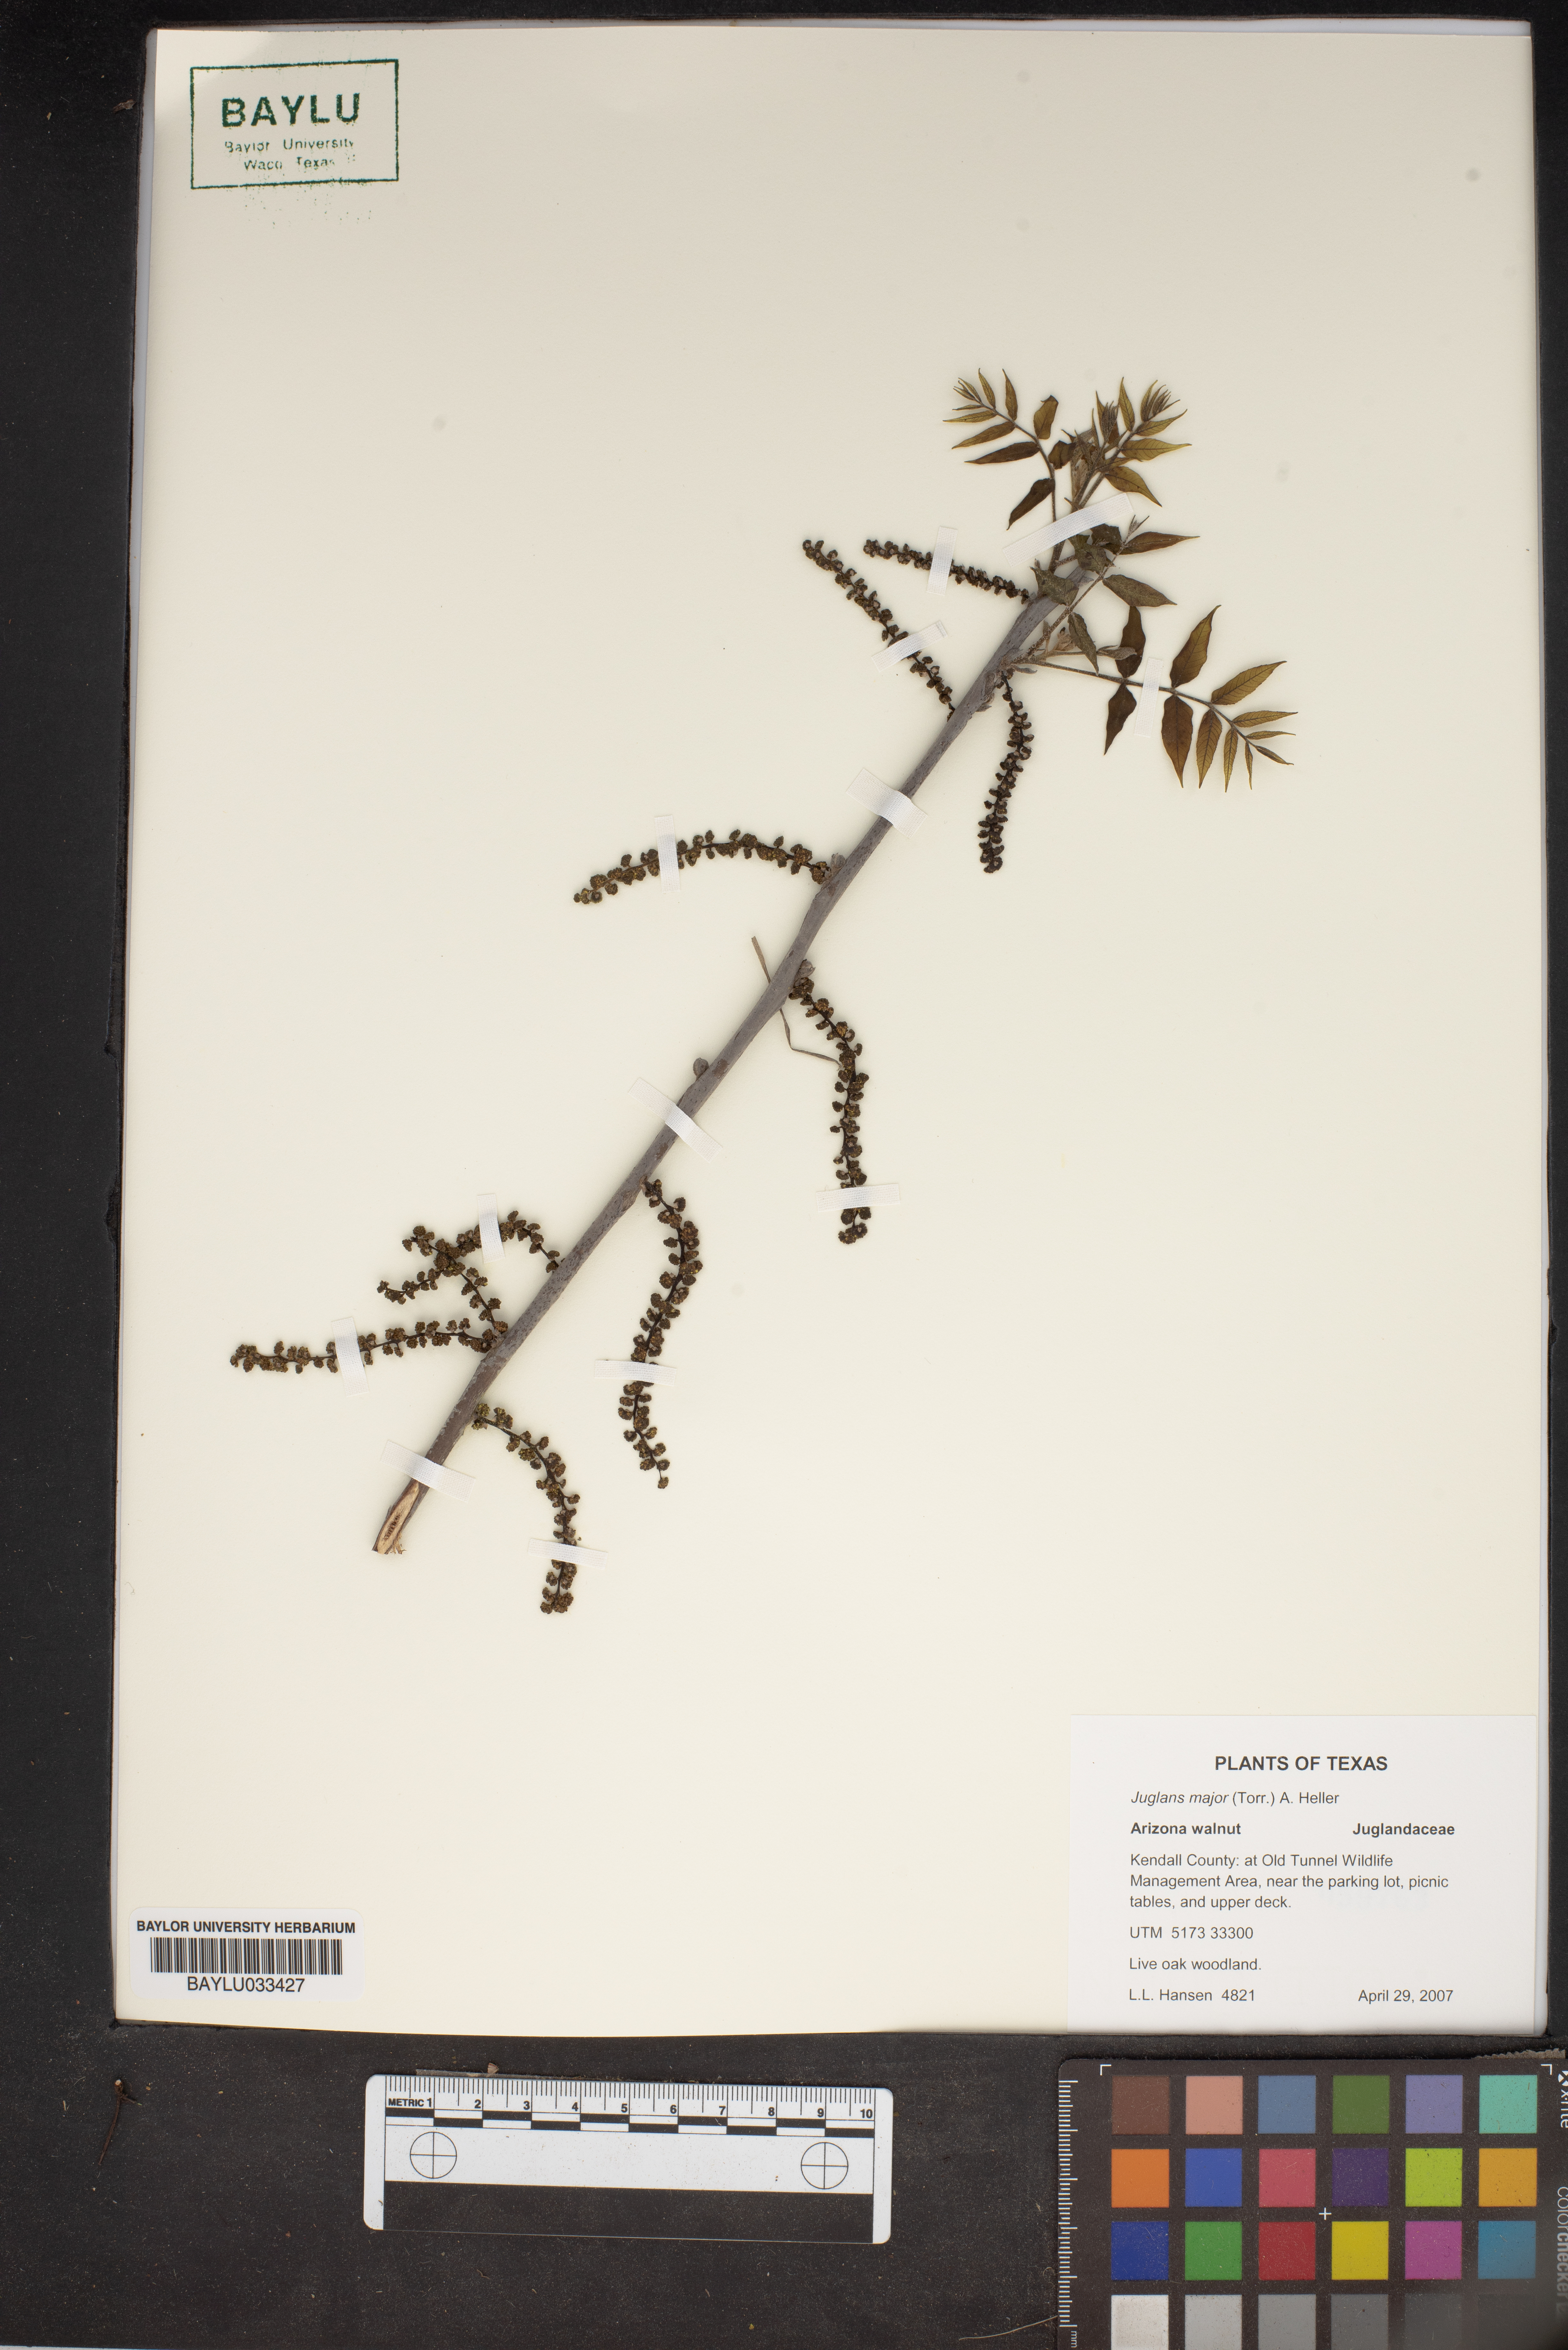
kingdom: Plantae
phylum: Tracheophyta
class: Magnoliopsida
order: Fagales
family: Juglandaceae
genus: Juglans
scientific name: Juglans major
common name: Arizona walnut
